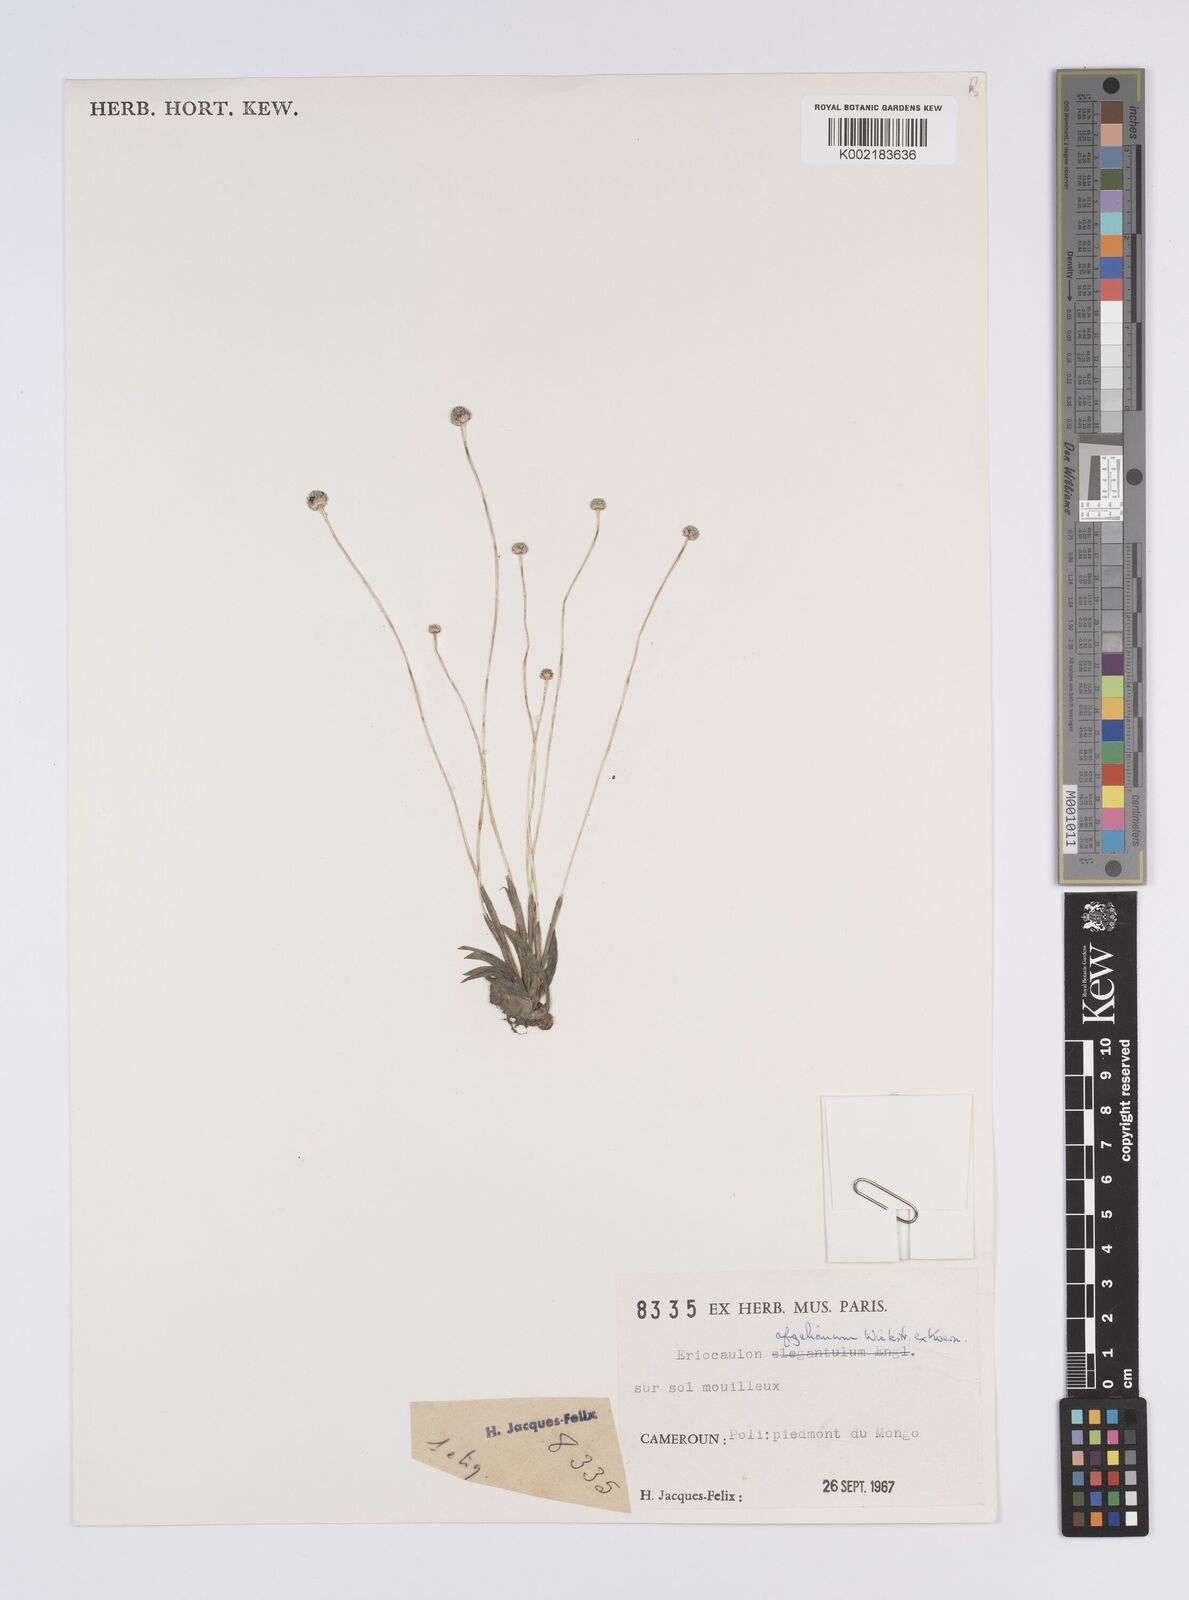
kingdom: Plantae
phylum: Tracheophyta
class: Liliopsida
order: Poales
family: Eriocaulaceae
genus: Eriocaulon
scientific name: Eriocaulon afzelianum
